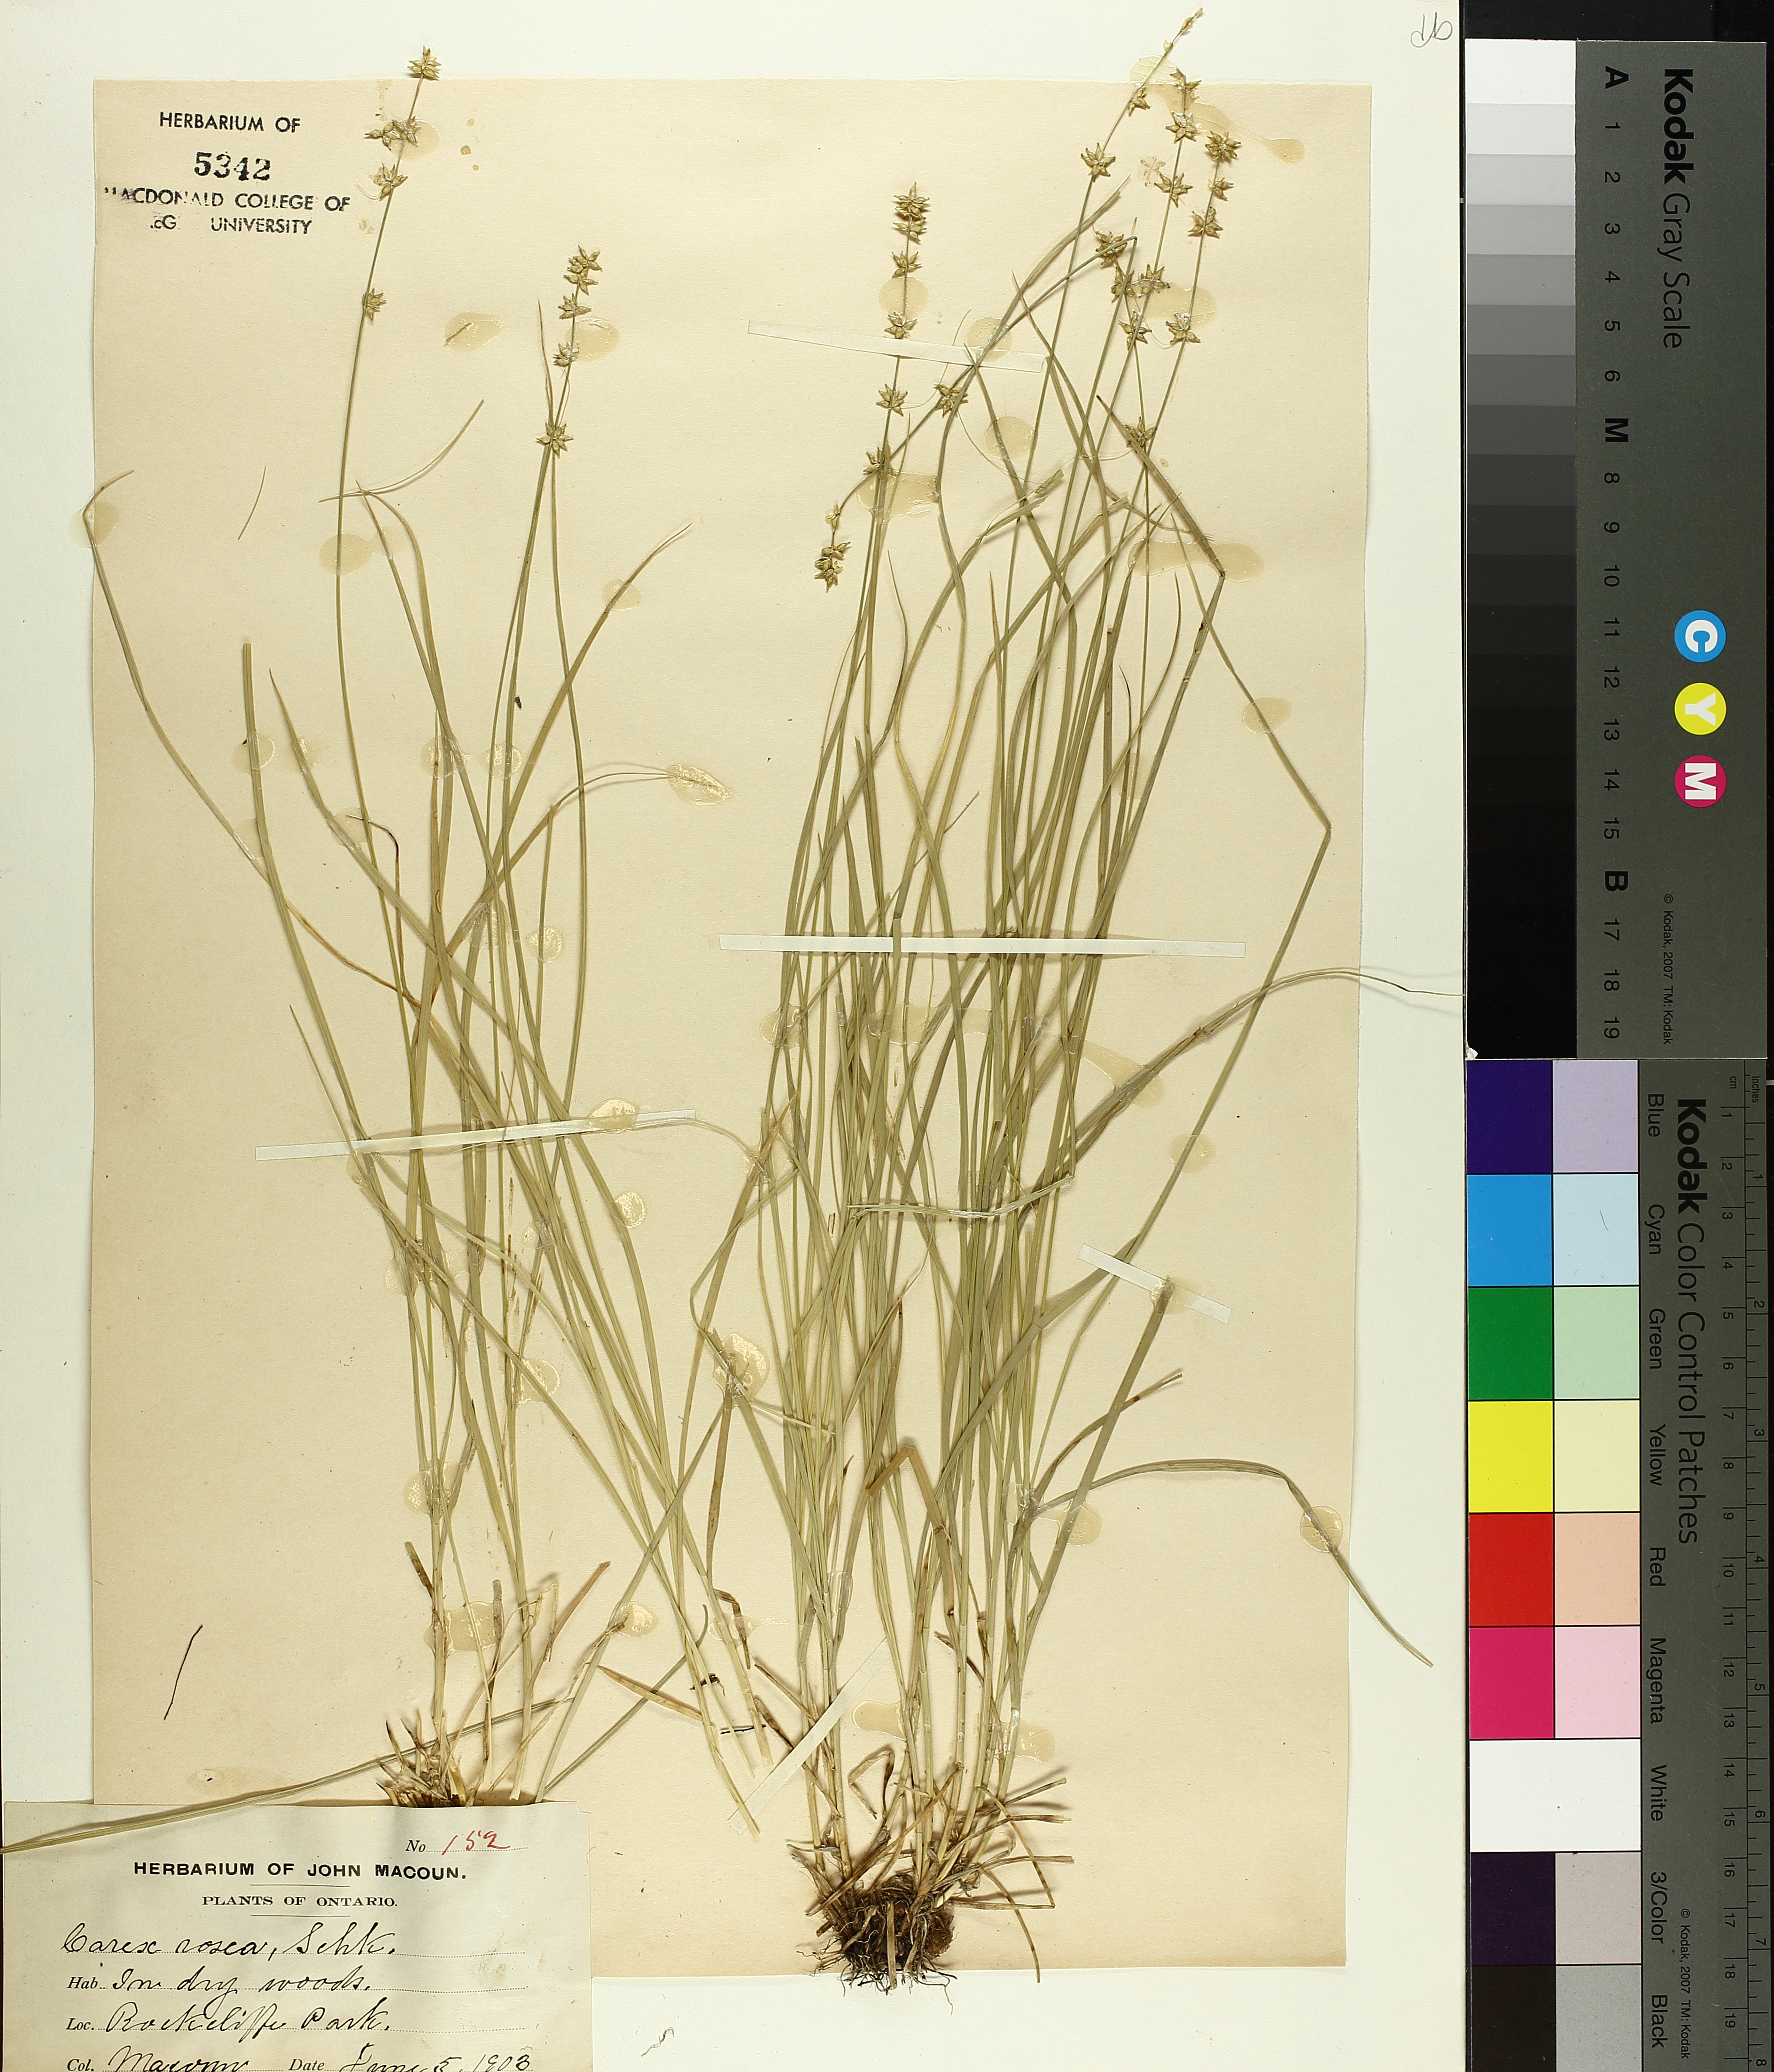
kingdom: Plantae
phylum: Tracheophyta
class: Liliopsida
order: Poales
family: Cyperaceae
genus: Carex
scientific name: Carex rosea
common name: Curly-styled wood sedge
